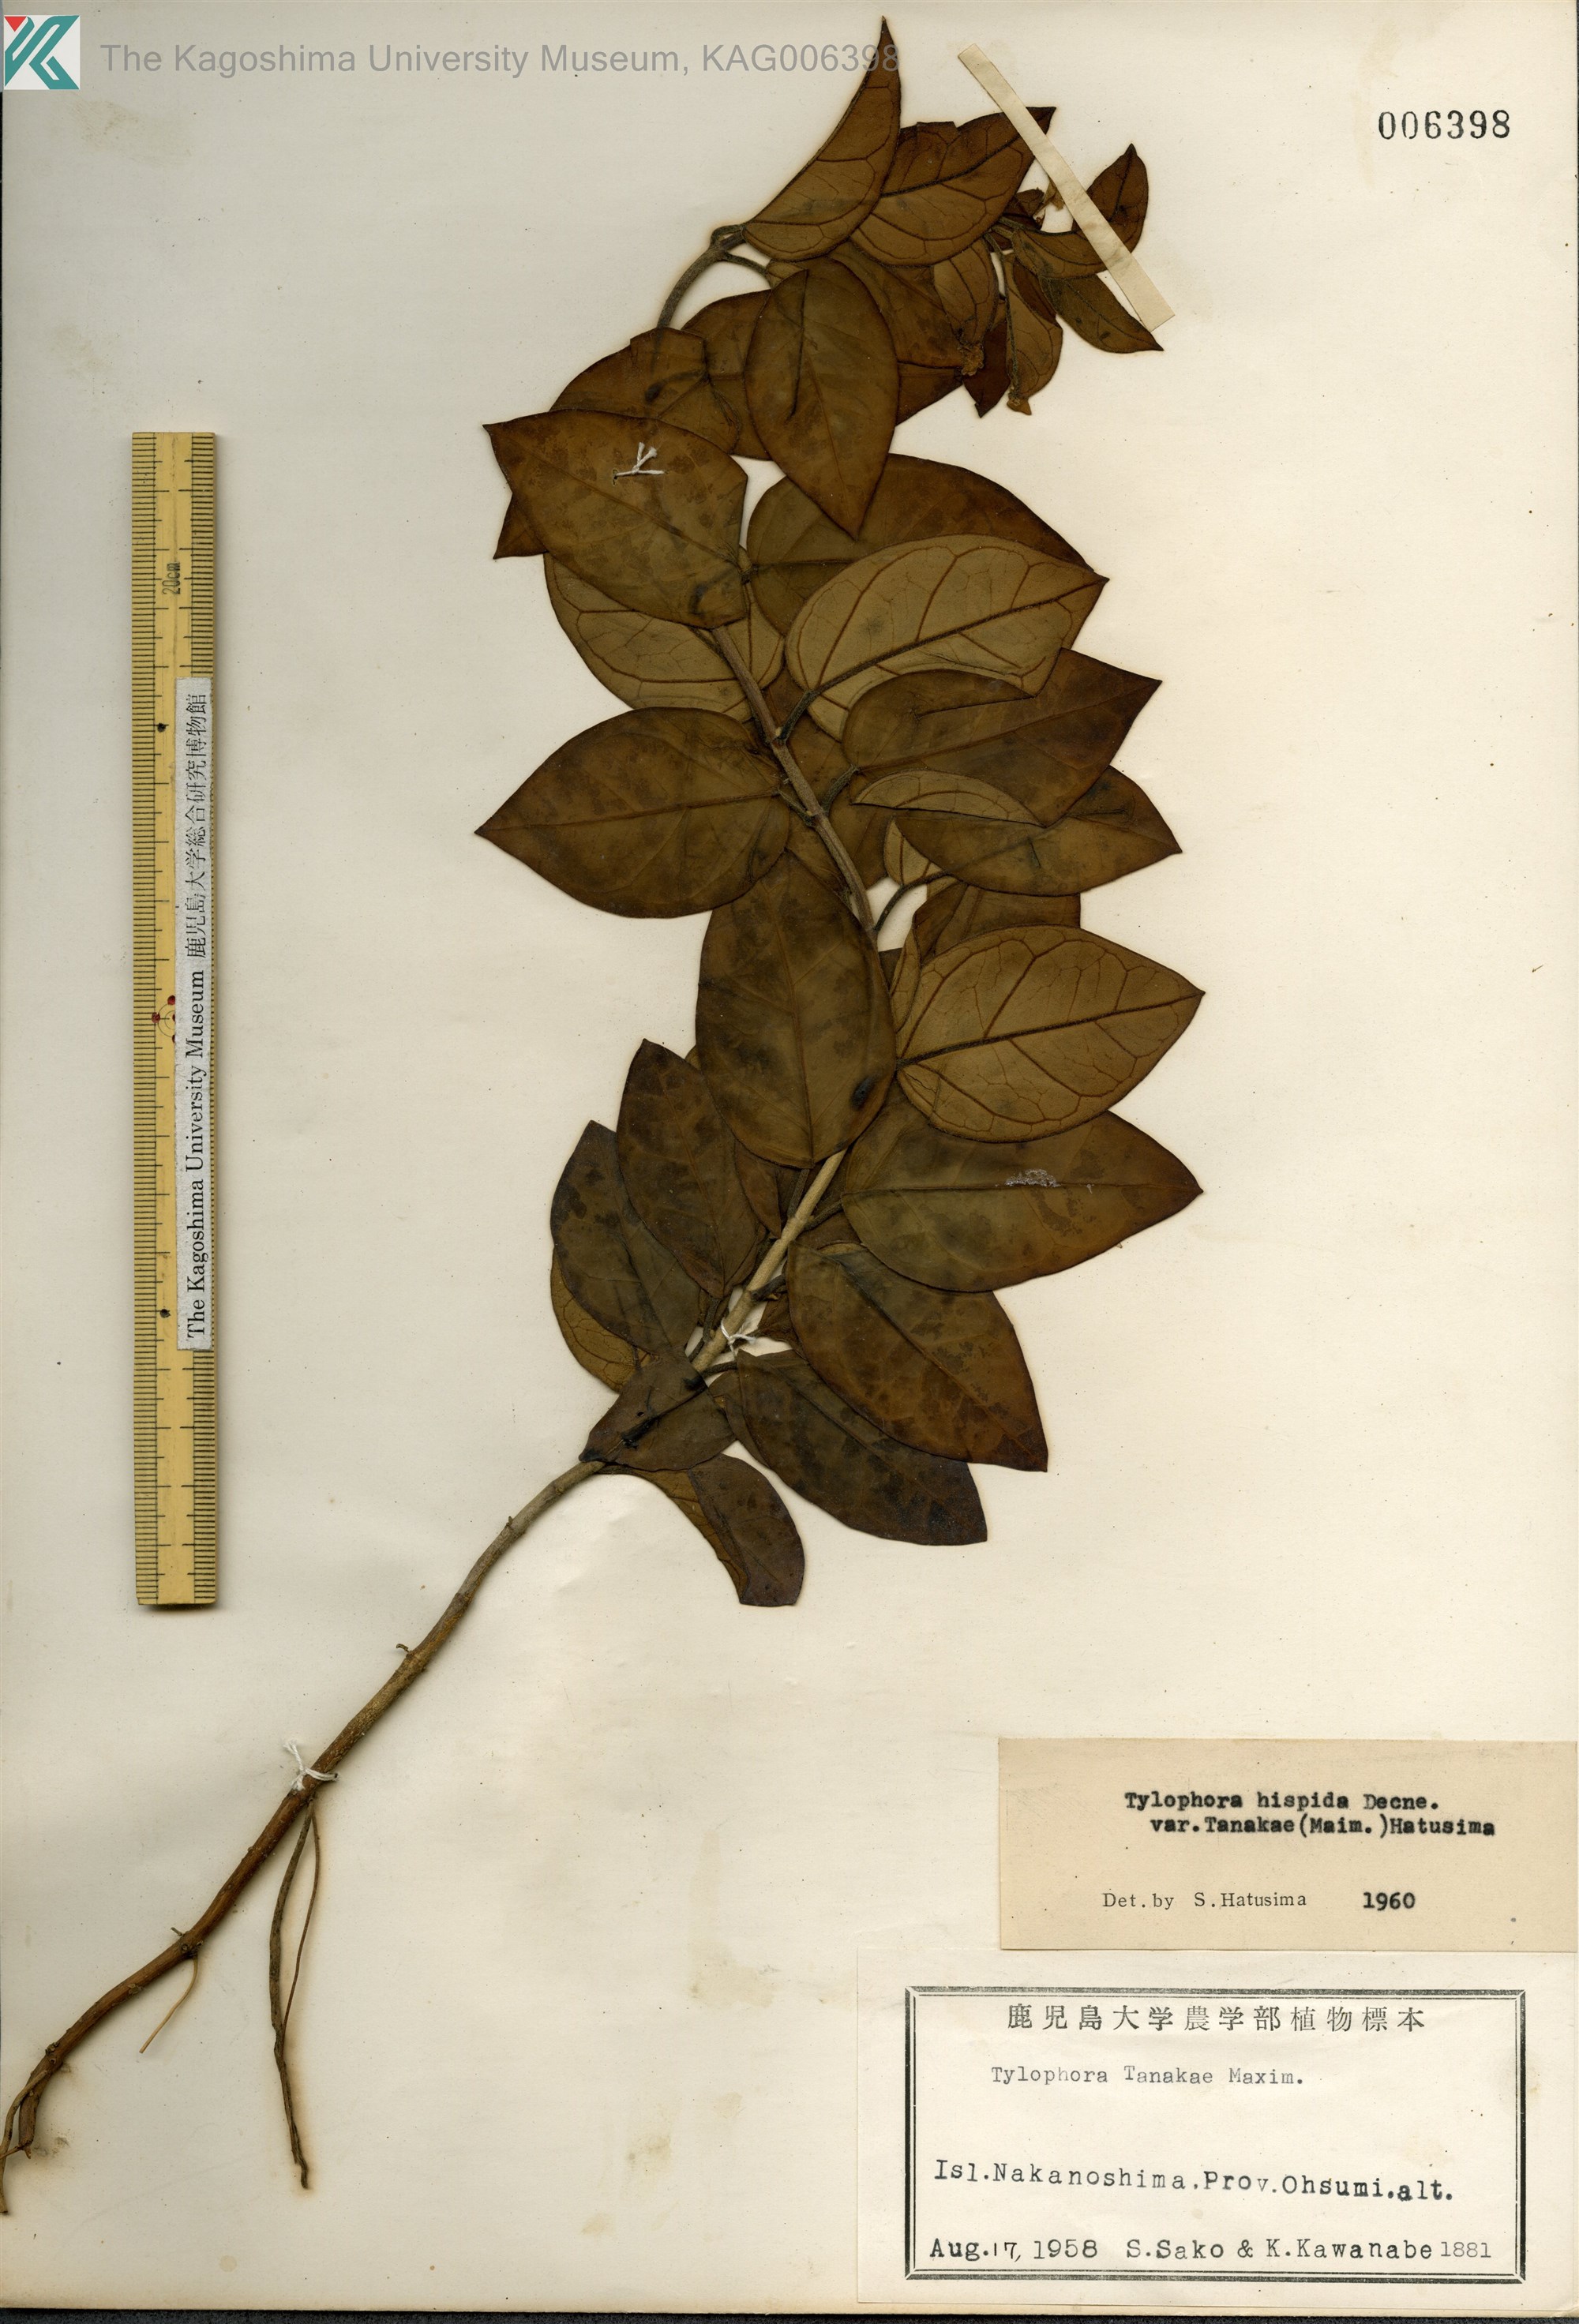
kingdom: Plantae
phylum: Tracheophyta
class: Magnoliopsida
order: Gentianales
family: Apocynaceae
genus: Vincetoxicum
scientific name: Vincetoxicum Tylophora tanakae
